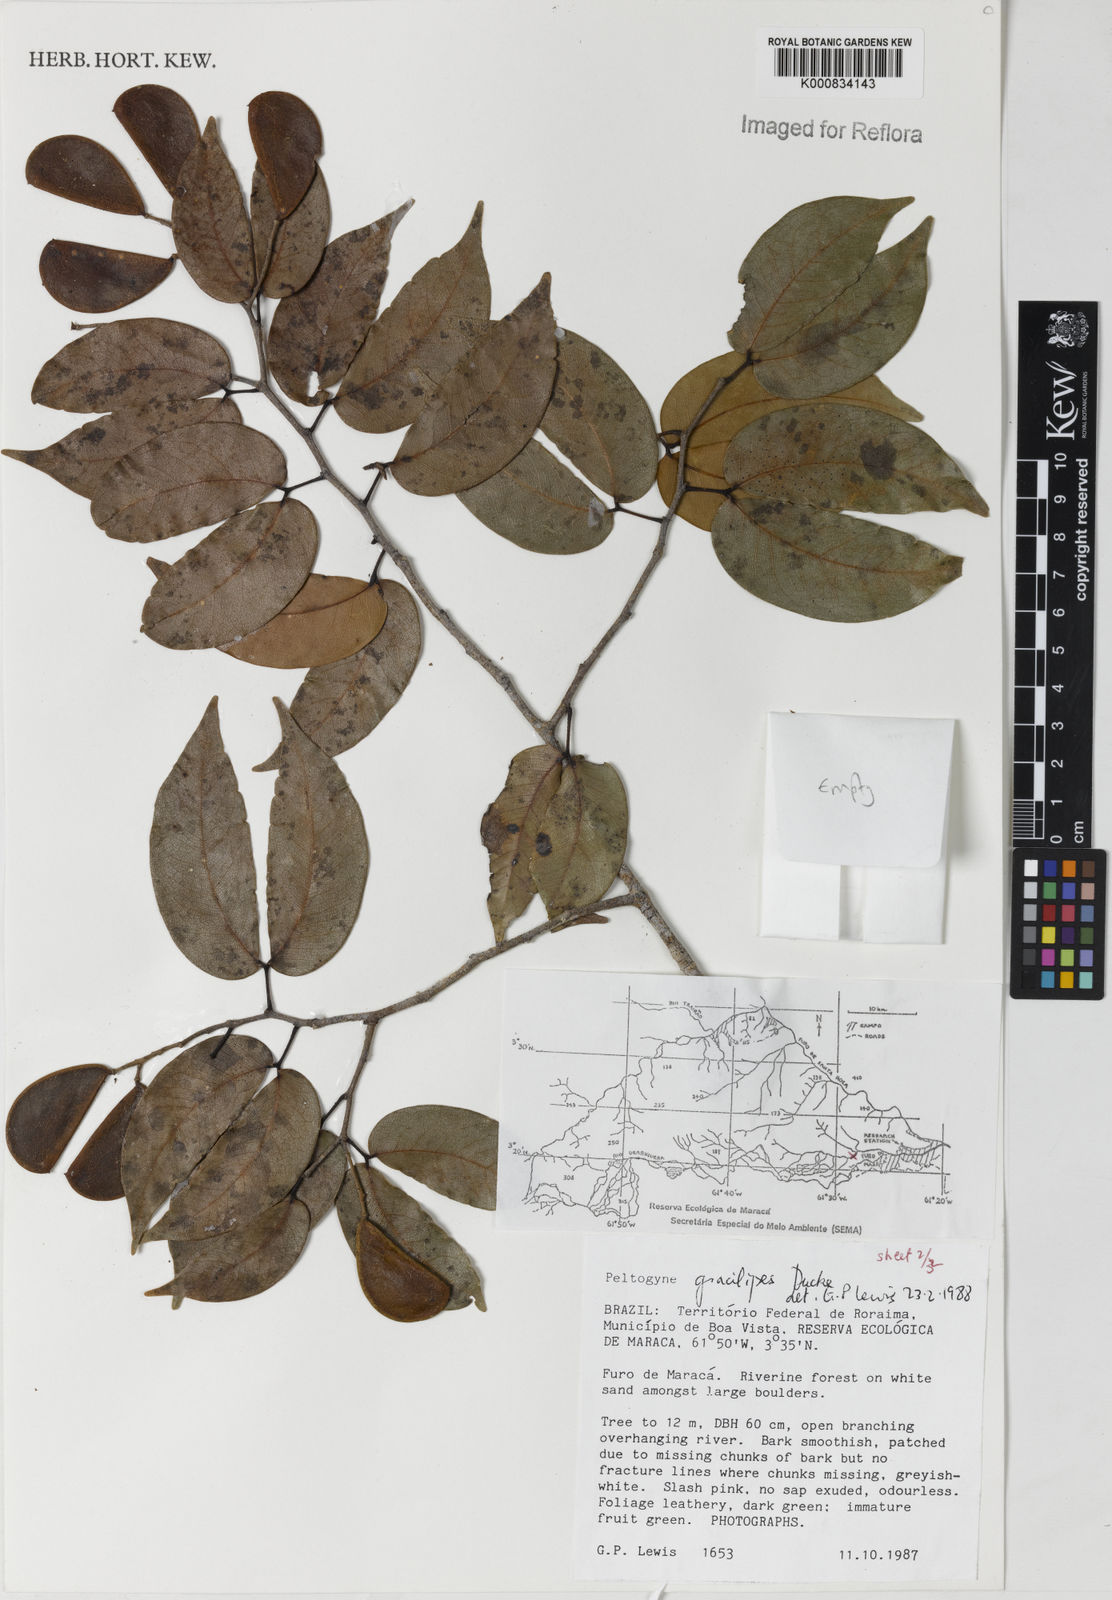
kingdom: Plantae
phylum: Tracheophyta
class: Magnoliopsida
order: Fabales
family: Fabaceae
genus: Peltogyne
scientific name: Peltogyne gracilipes
